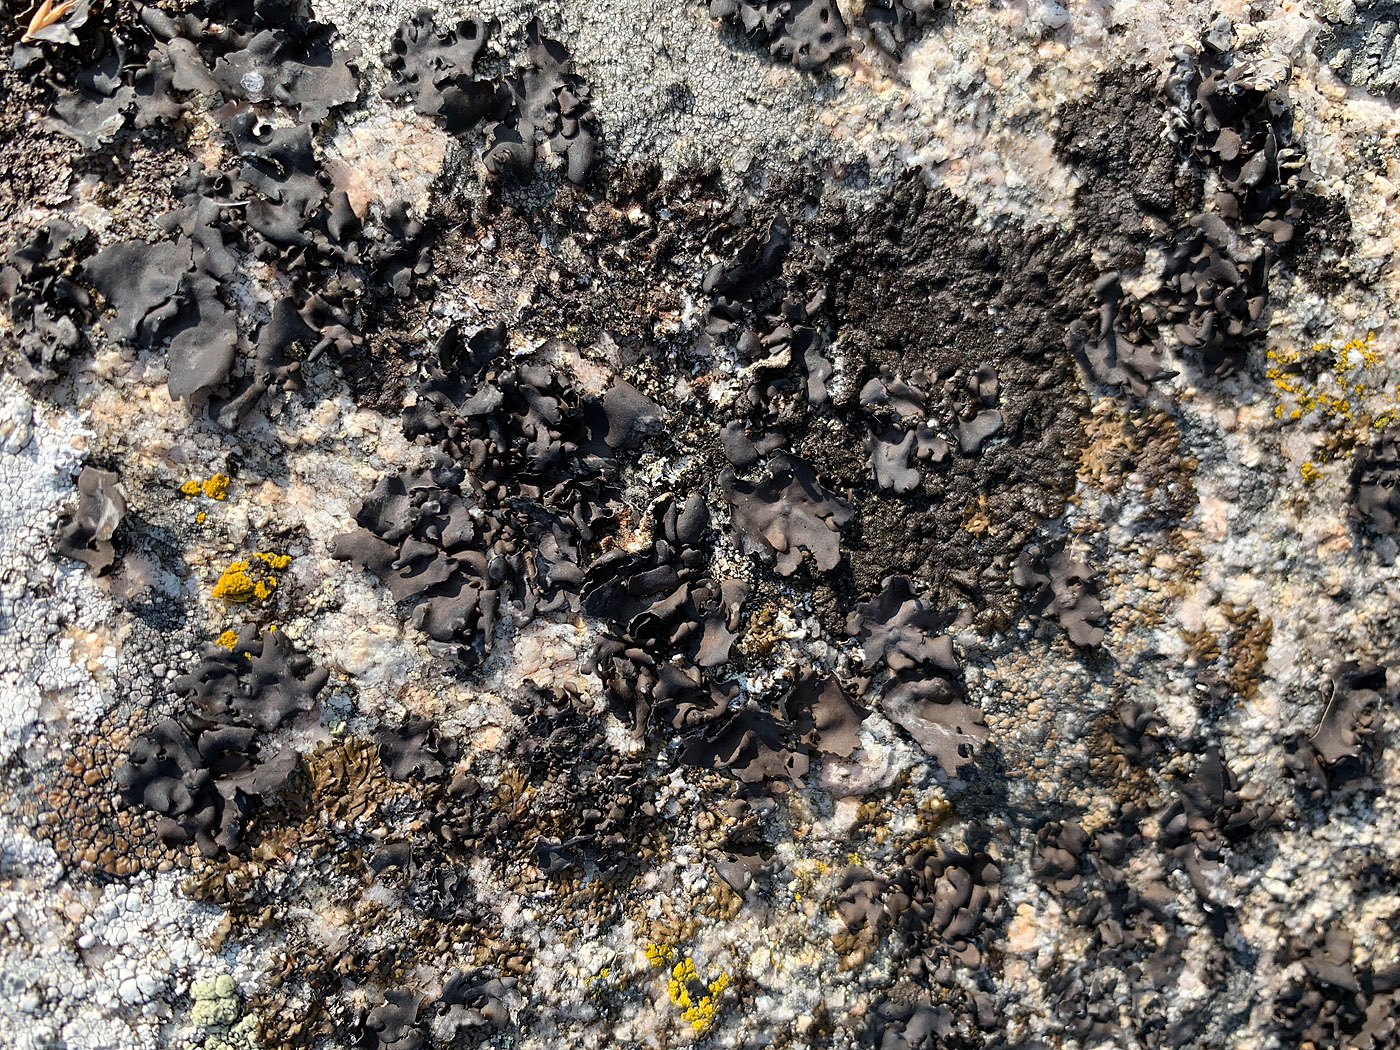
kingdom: Fungi
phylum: Ascomycota
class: Lecanoromycetes
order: Umbilicariales
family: Umbilicariaceae
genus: Umbilicaria
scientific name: Umbilicaria polyphylla
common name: glat navlelav
